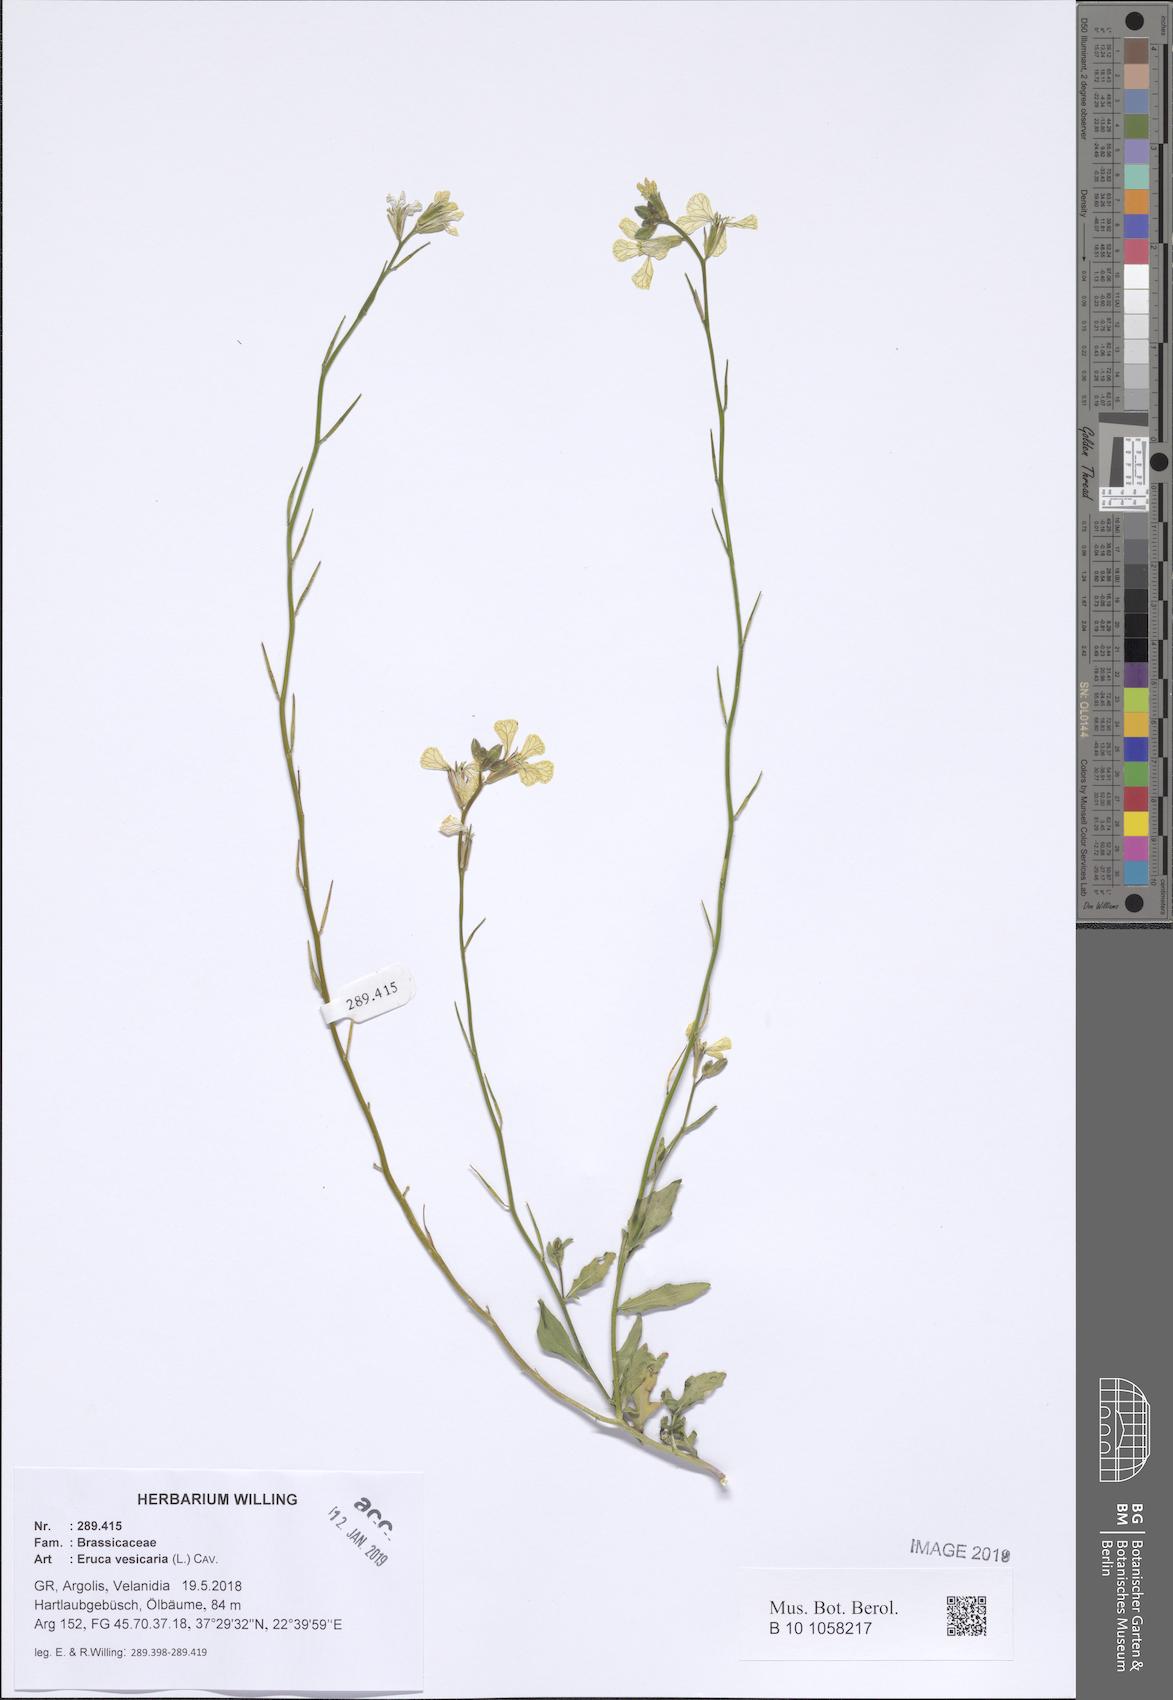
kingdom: Plantae
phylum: Tracheophyta
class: Magnoliopsida
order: Brassicales
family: Brassicaceae
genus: Eruca
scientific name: Eruca vesicaria
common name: Garden rocket
